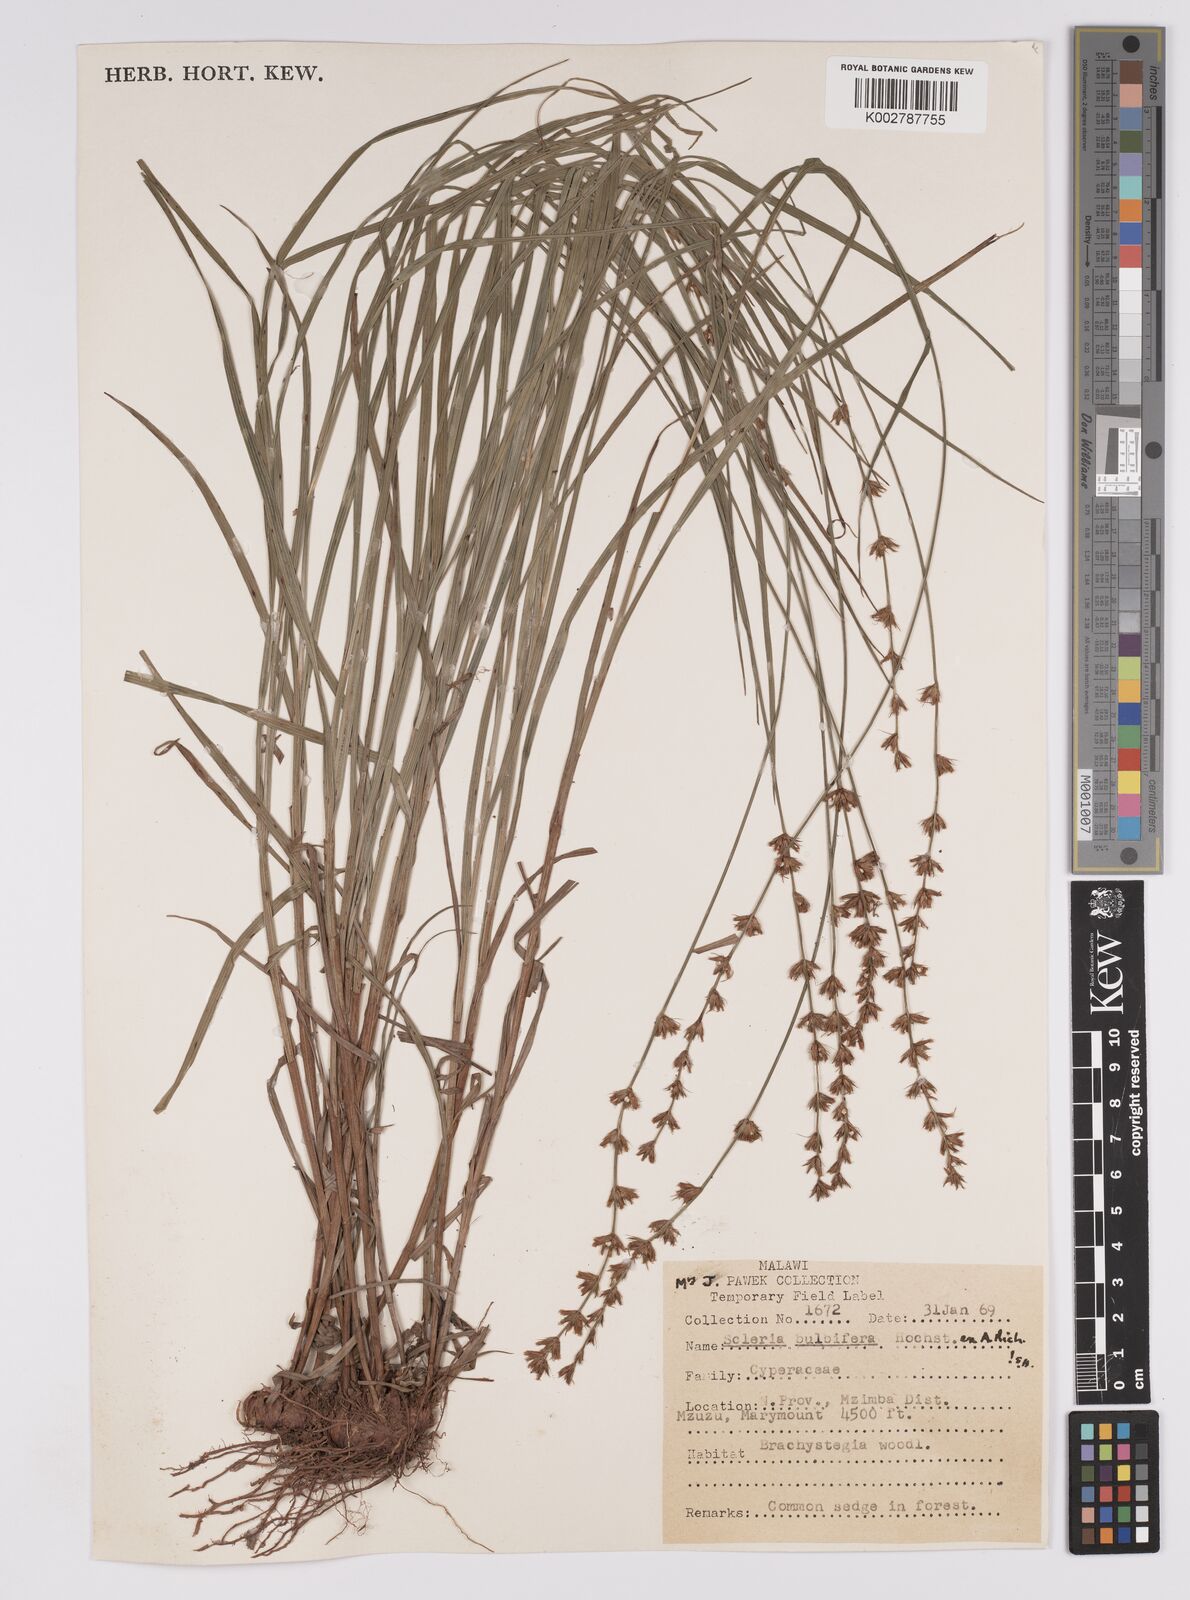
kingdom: Plantae
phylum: Tracheophyta
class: Liliopsida
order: Poales
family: Cyperaceae
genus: Scleria
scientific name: Scleria bulbifera
